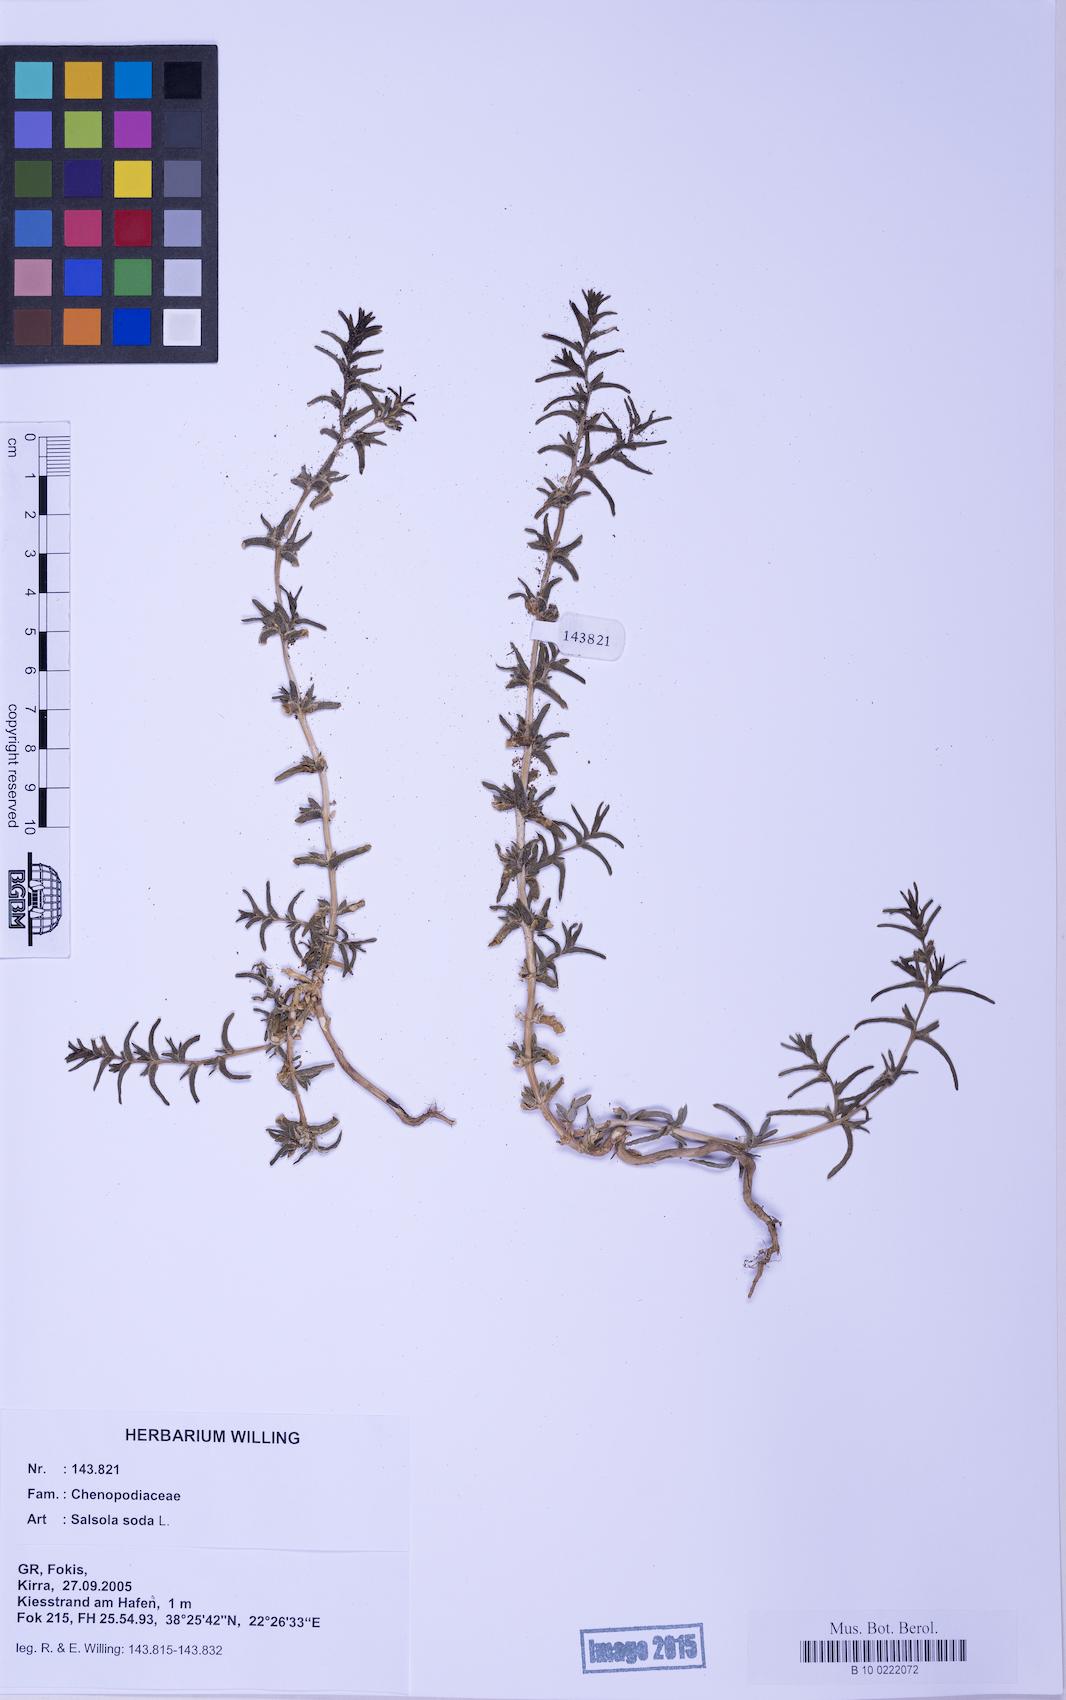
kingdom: Plantae
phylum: Tracheophyta
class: Magnoliopsida
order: Caryophyllales
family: Amaranthaceae
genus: Soda
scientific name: Soda inermis
